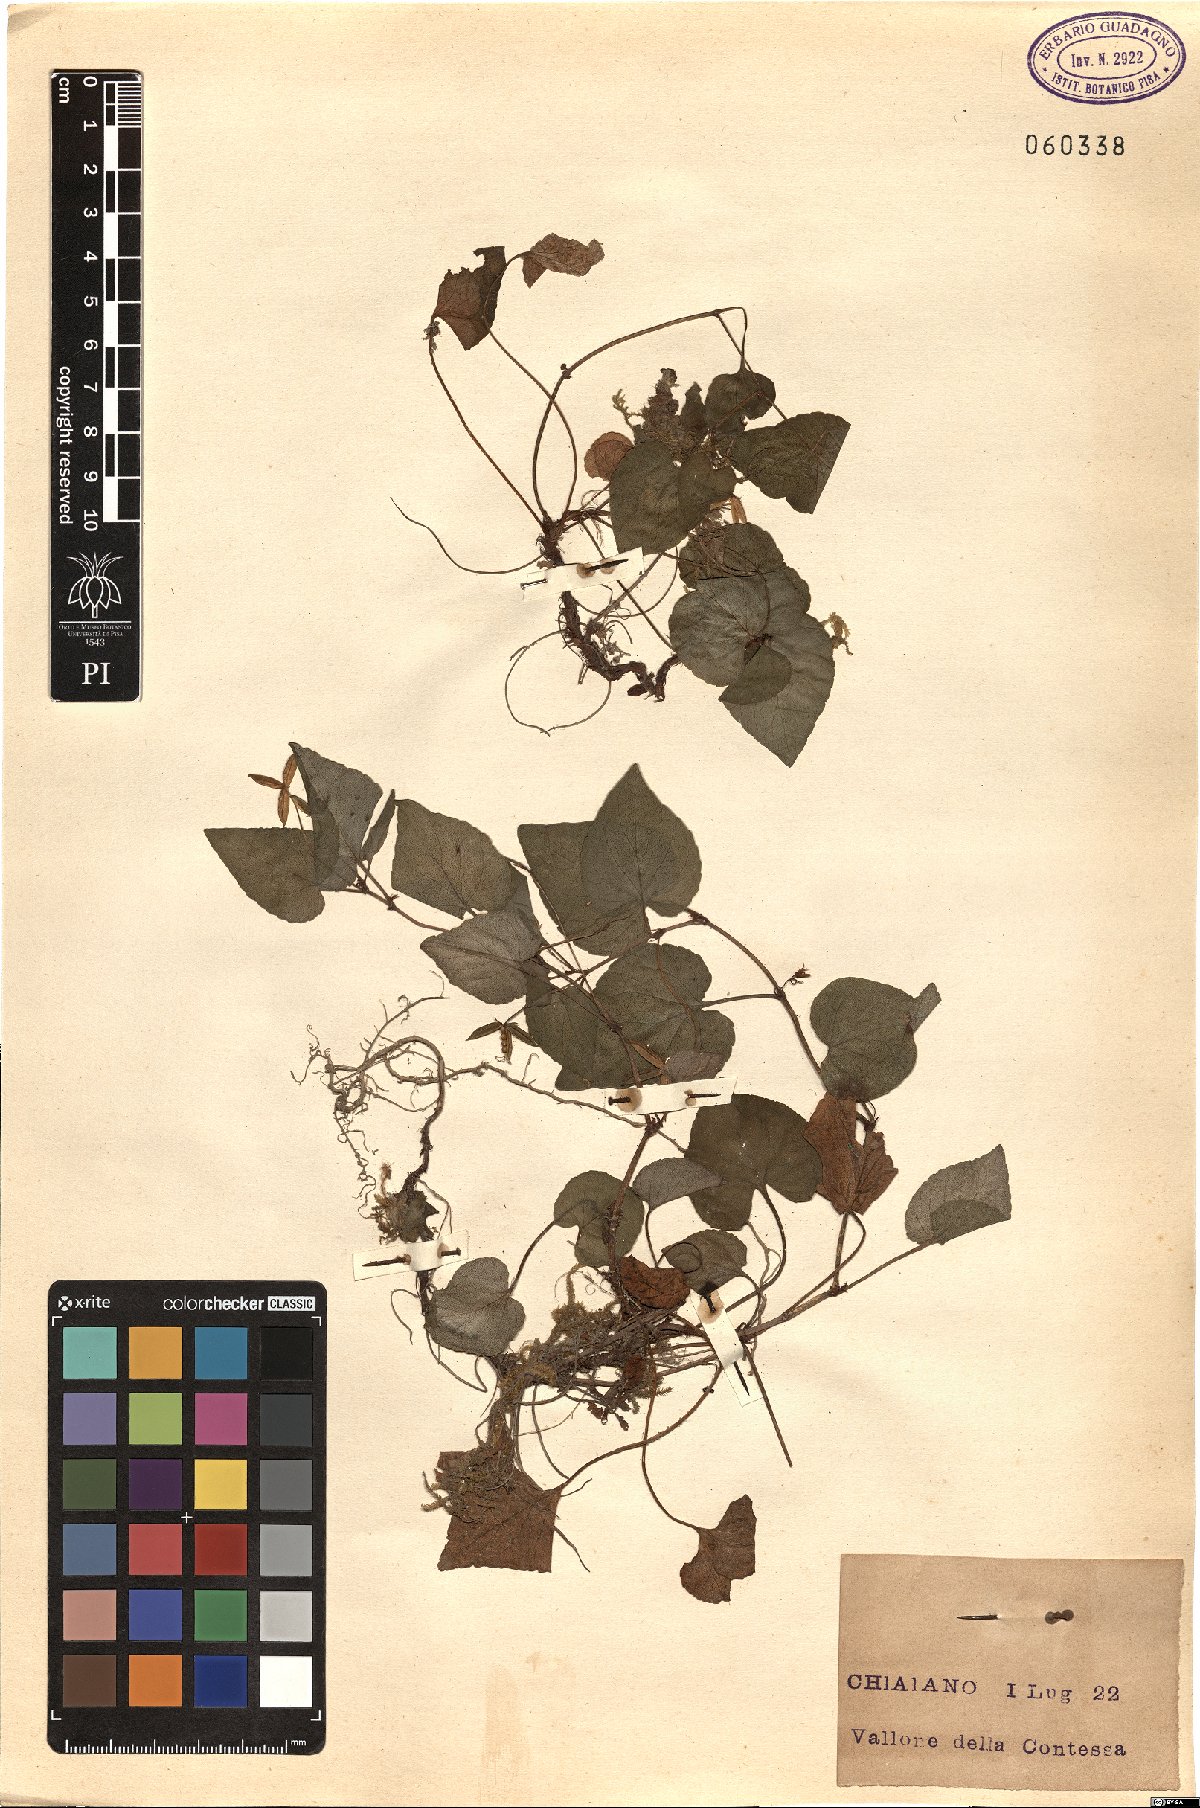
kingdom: Plantae
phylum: Tracheophyta
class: Magnoliopsida
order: Malpighiales
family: Violaceae
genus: Viola
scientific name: Viola
